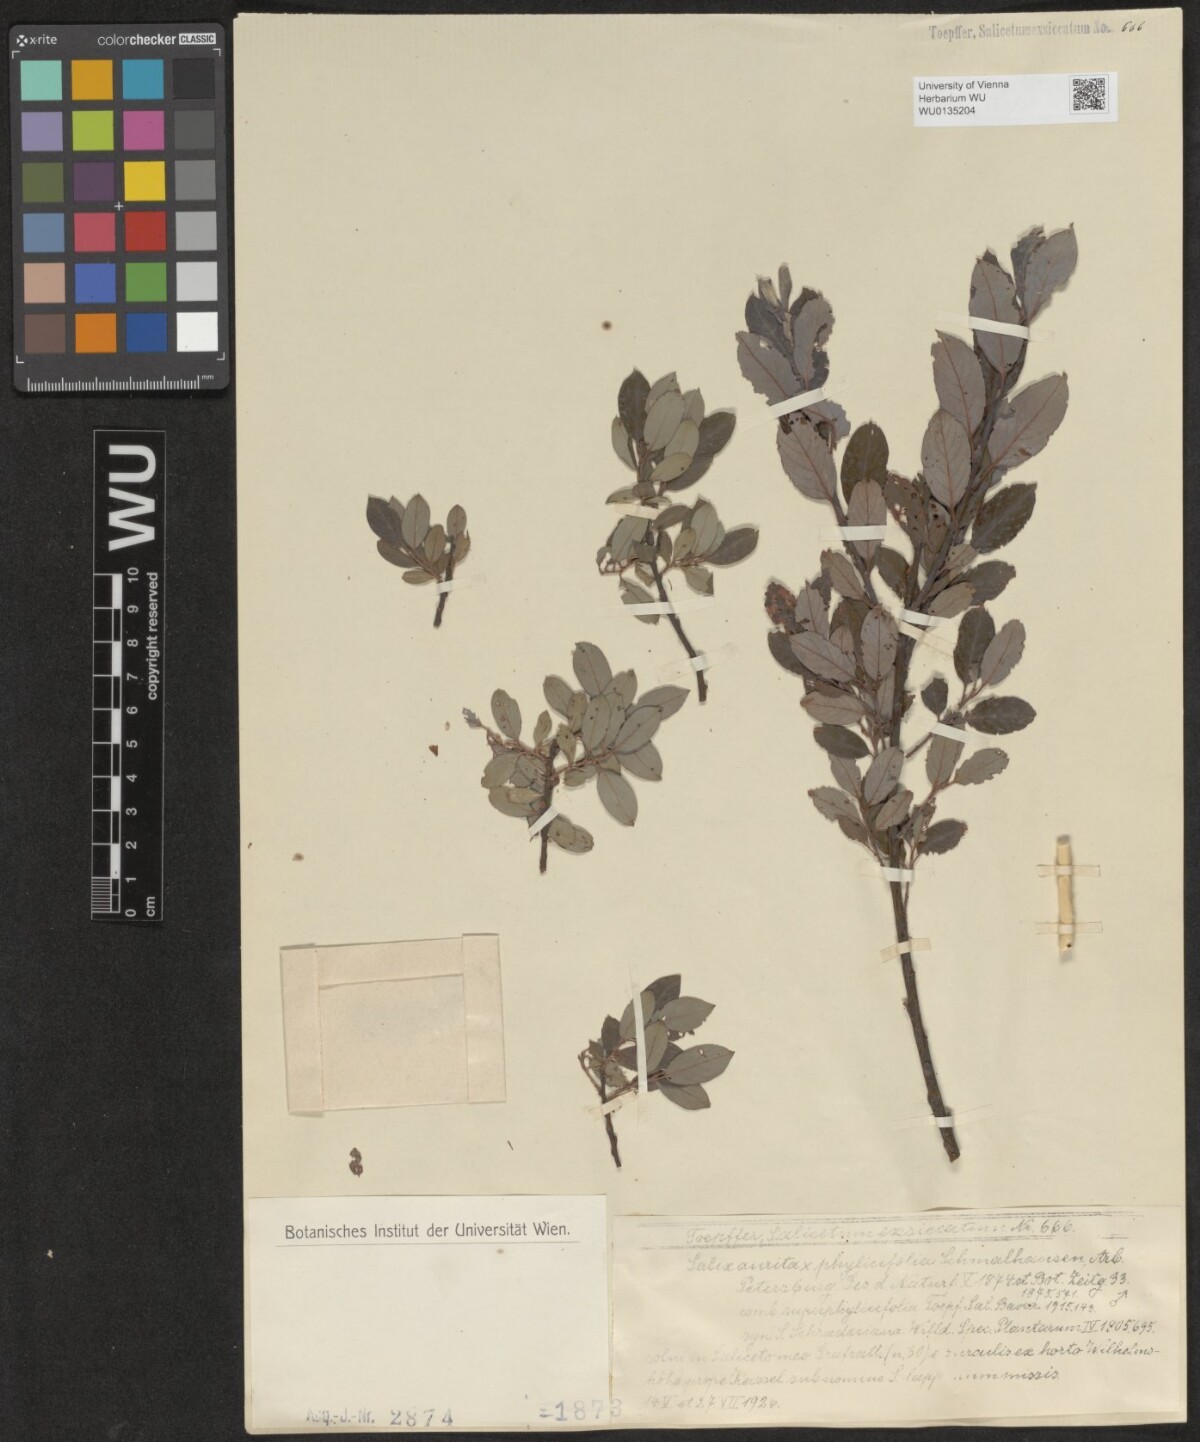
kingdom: Plantae
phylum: Tracheophyta
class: Magnoliopsida
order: Malpighiales
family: Salicaceae
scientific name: Salicaceae
